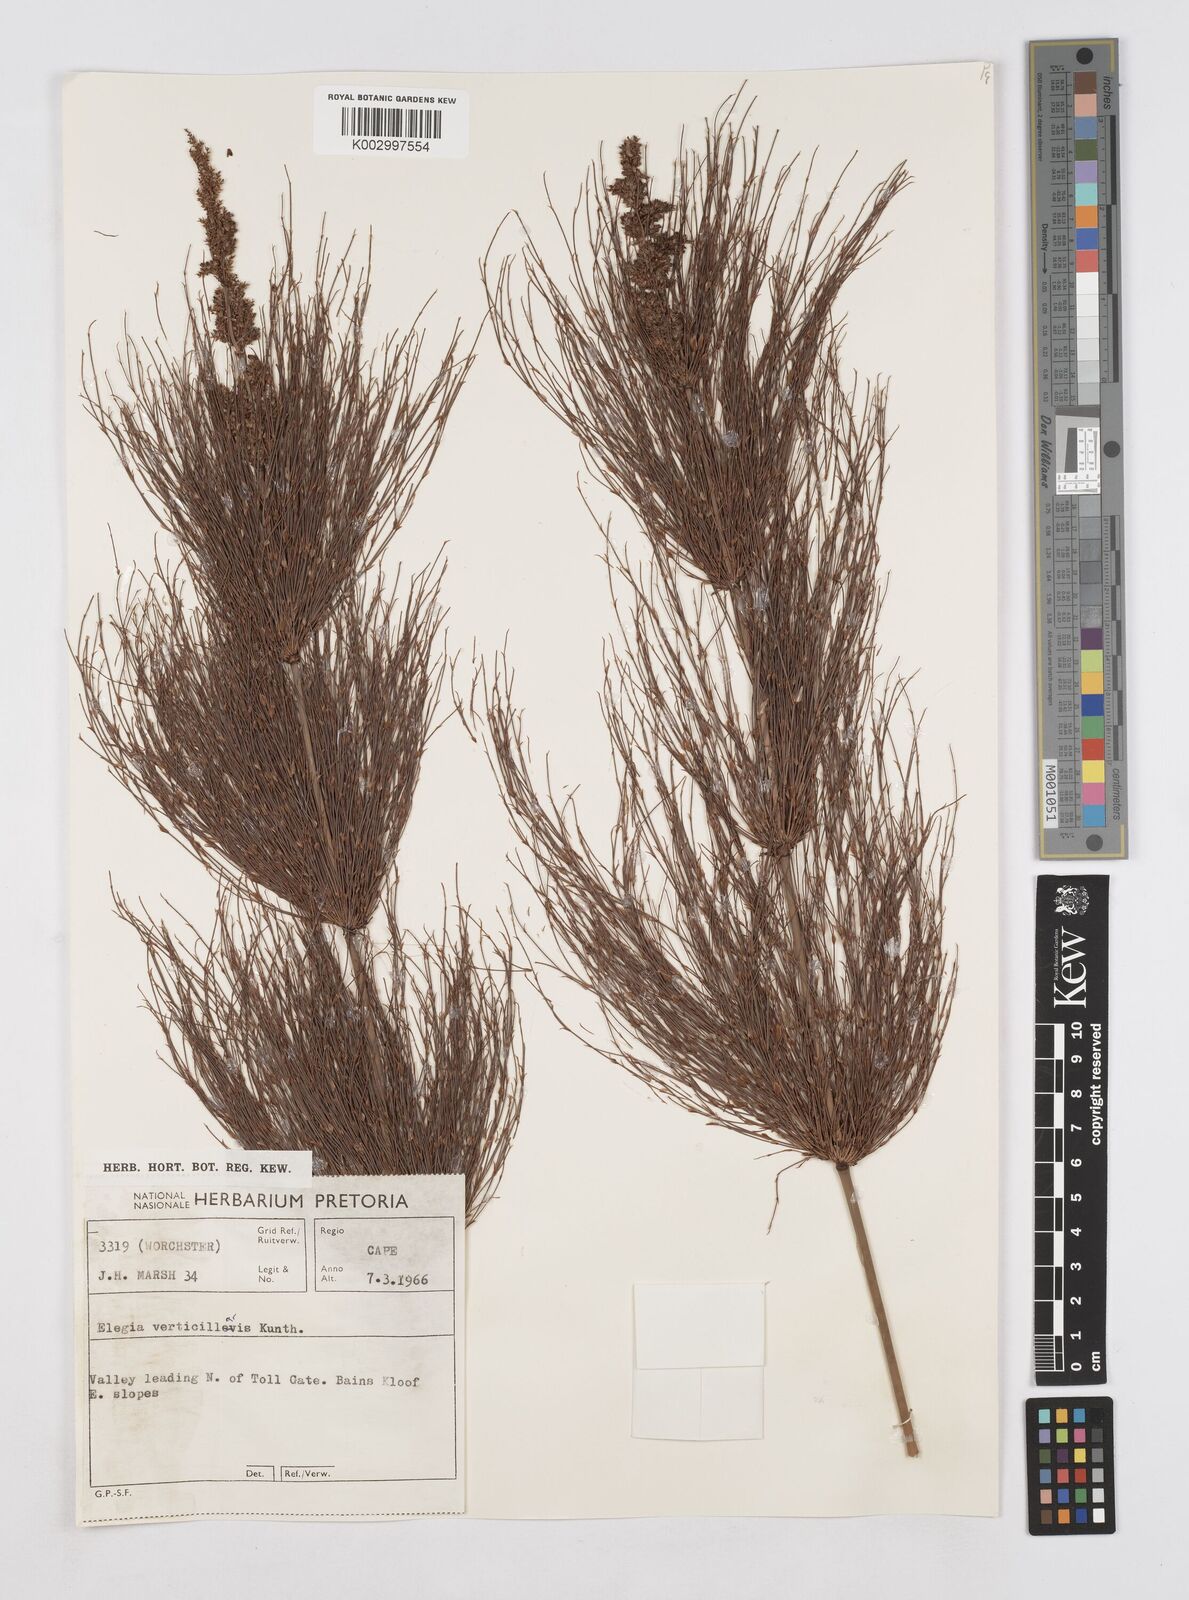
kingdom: Plantae
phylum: Tracheophyta
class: Liliopsida
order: Poales
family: Restionaceae
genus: Elegia
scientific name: Elegia capensis
